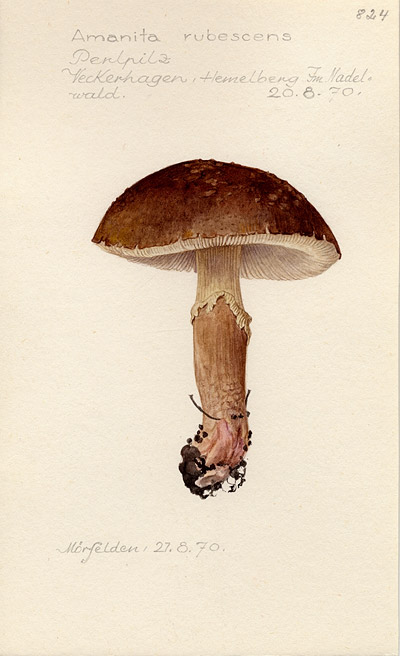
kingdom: Fungi
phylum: Basidiomycota
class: Agaricomycetes
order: Agaricales
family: Amanitaceae
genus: Amanita
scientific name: Amanita rubescens
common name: Blusher
